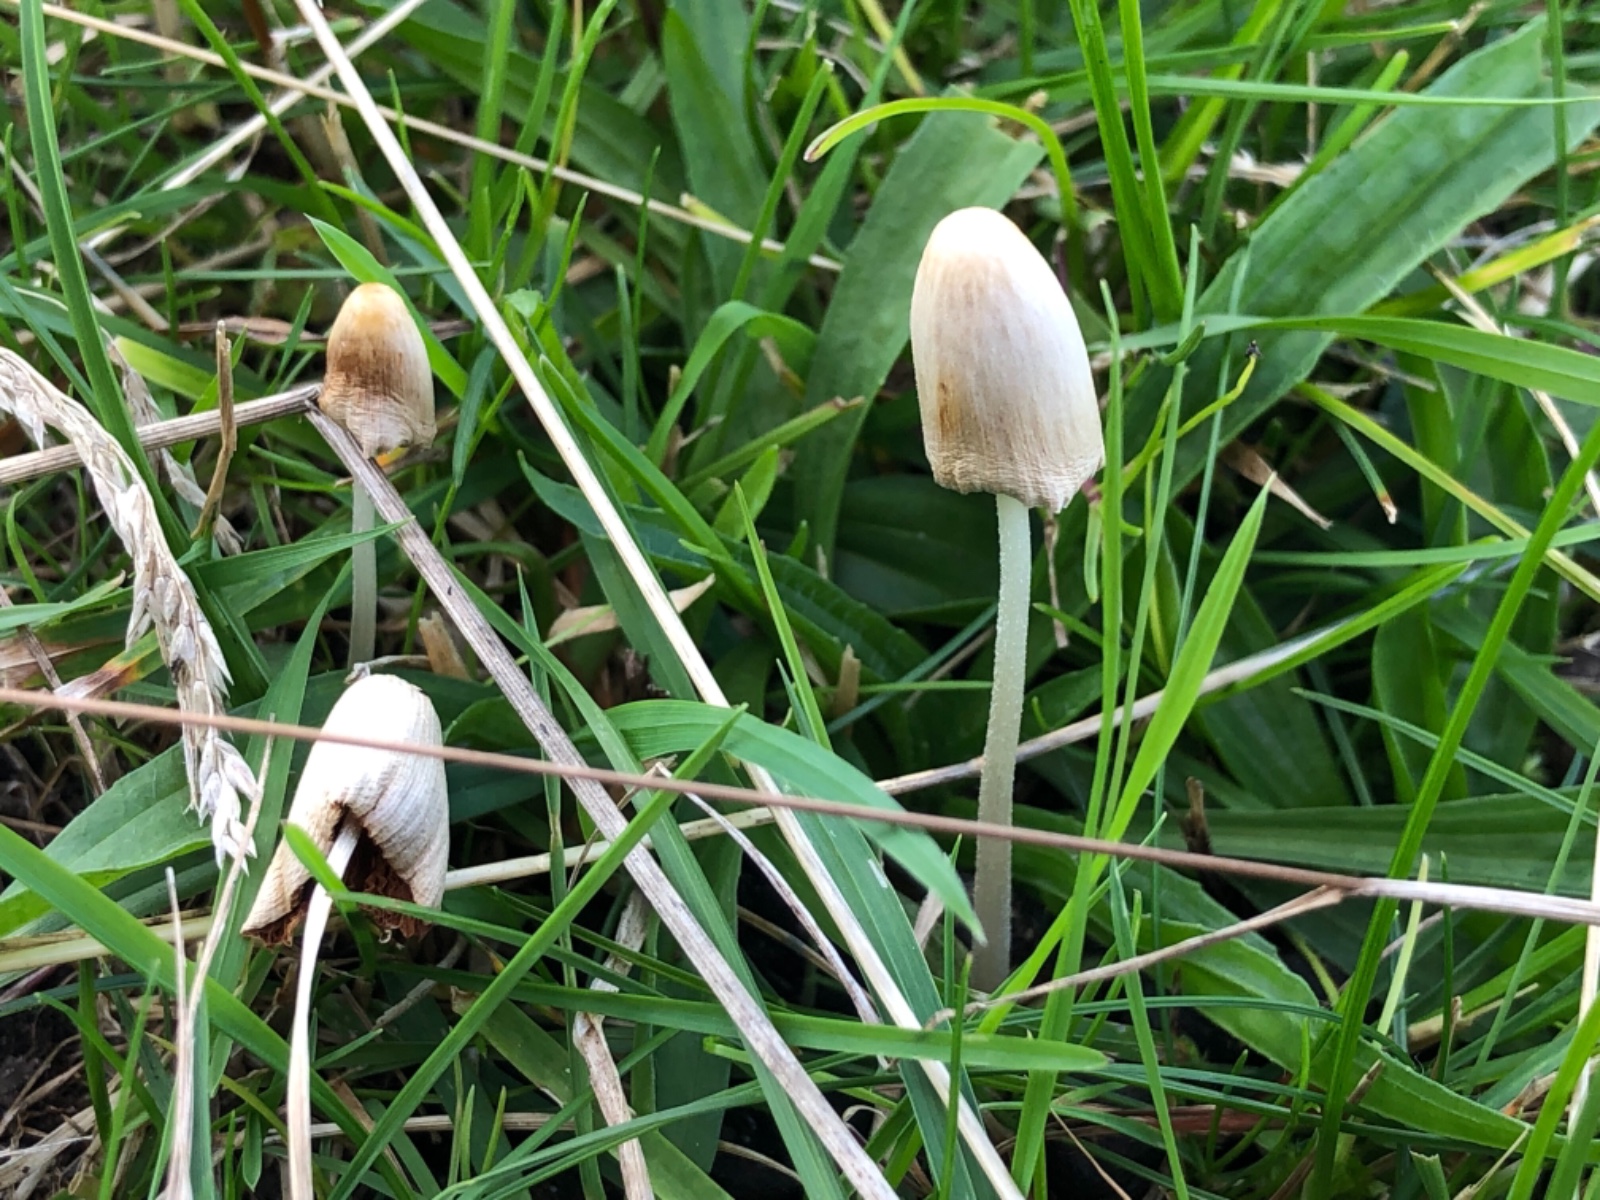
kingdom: Fungi
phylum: Basidiomycota
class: Agaricomycetes
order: Agaricales
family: Bolbitiaceae
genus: Conocybe
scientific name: Conocybe apala
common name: mælkehvid keglehat
